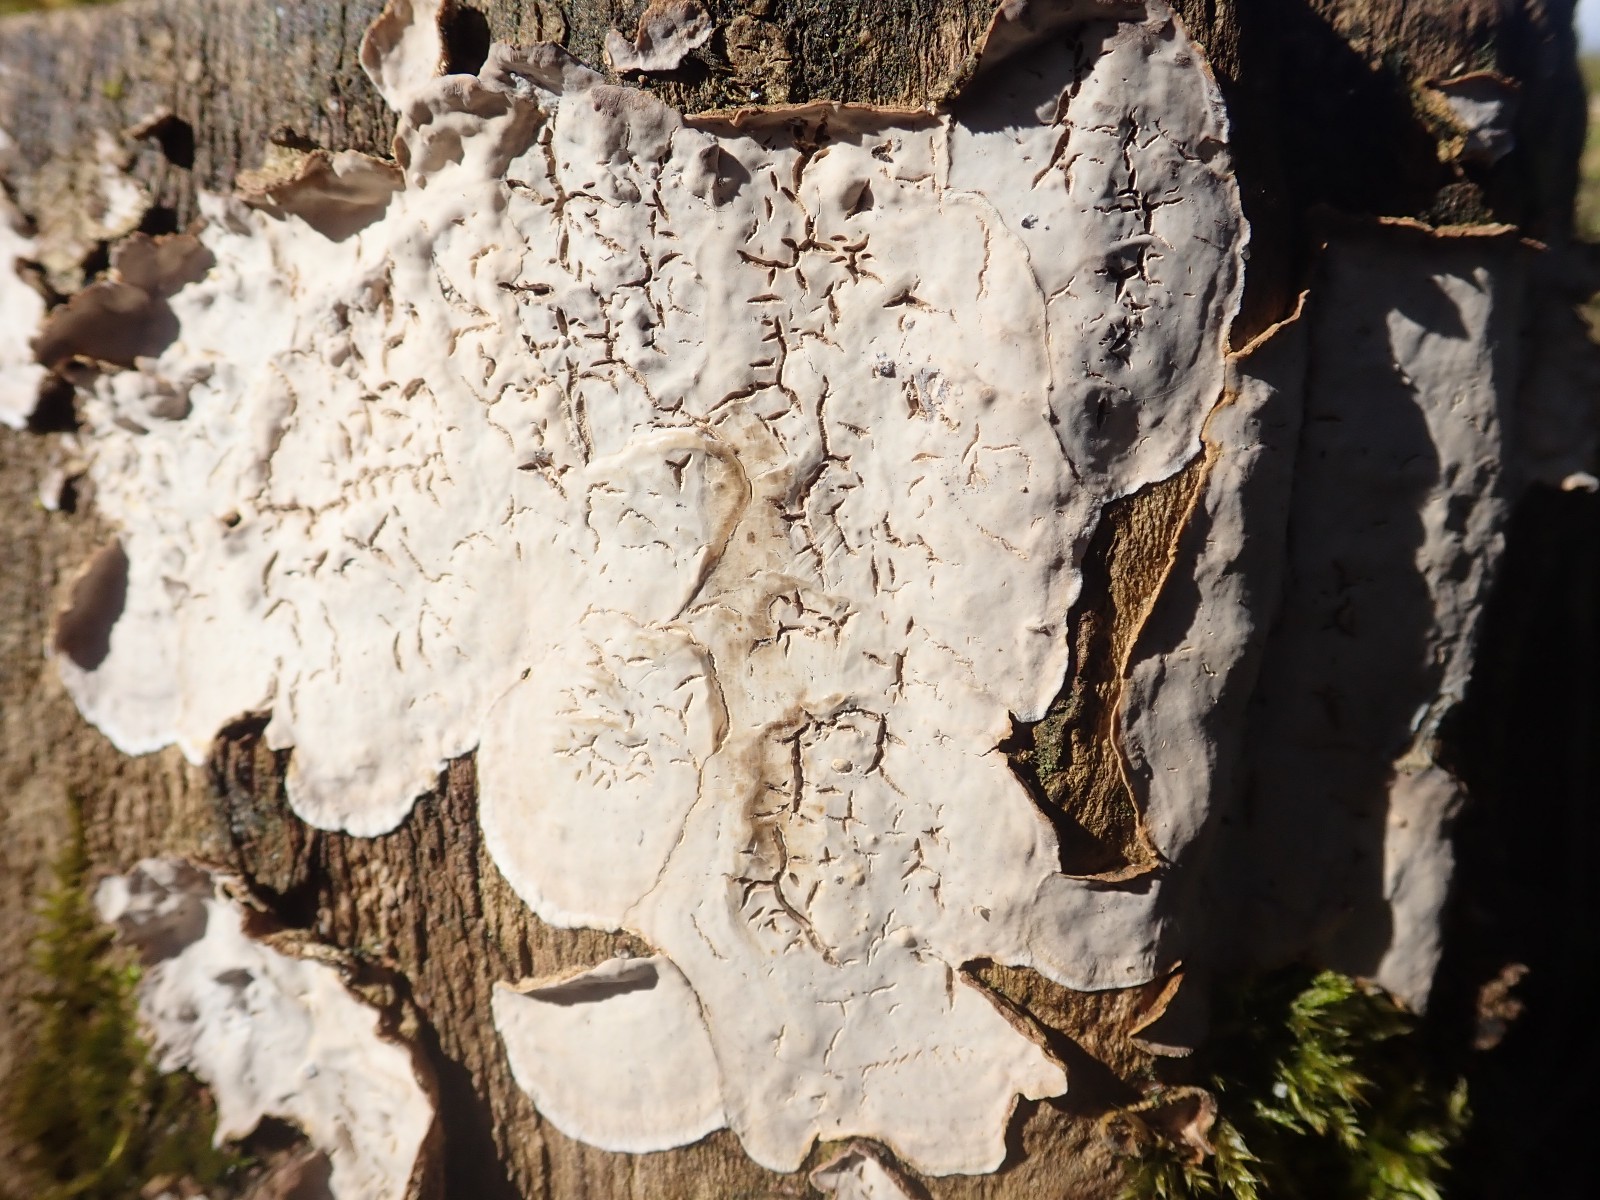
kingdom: Fungi
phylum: Basidiomycota
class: Agaricomycetes
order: Agaricales
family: Physalacriaceae
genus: Cylindrobasidium
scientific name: Cylindrobasidium evolvens
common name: sprækkehinde
